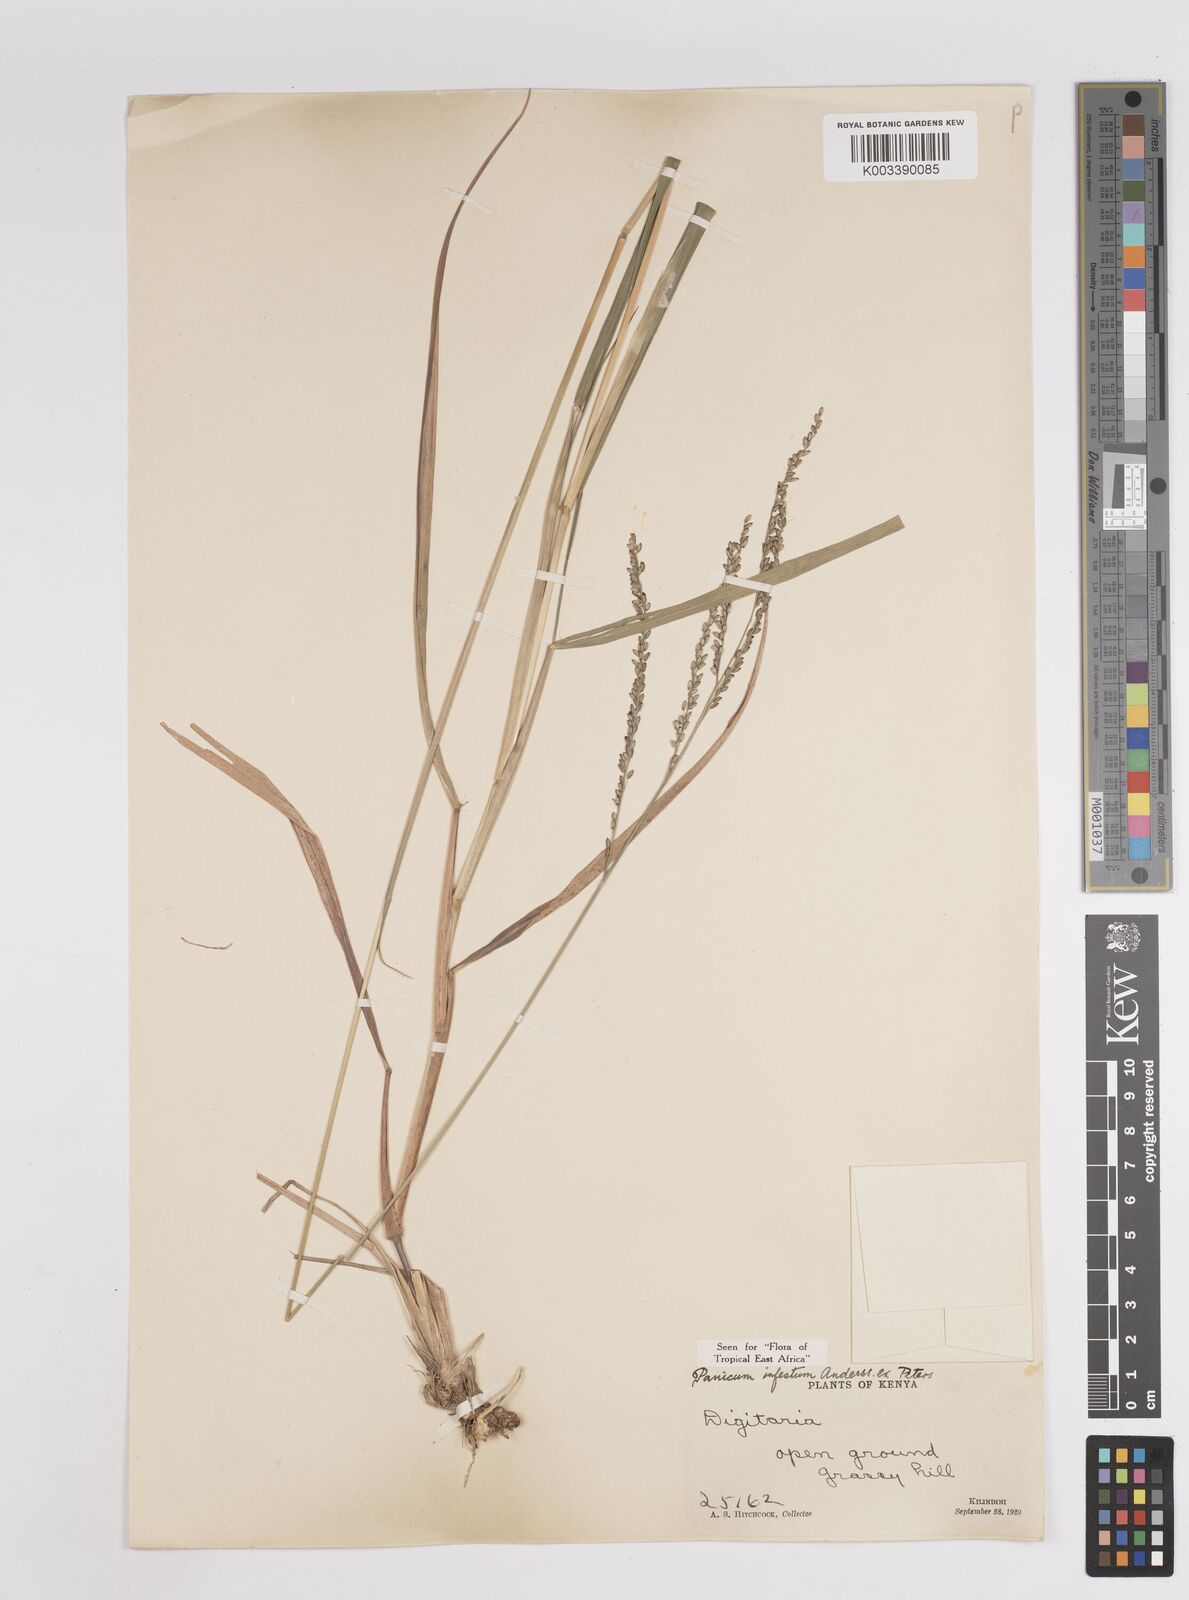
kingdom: Plantae
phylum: Tracheophyta
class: Liliopsida
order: Poales
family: Poaceae
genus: Megathyrsus
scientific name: Megathyrsus infestus
